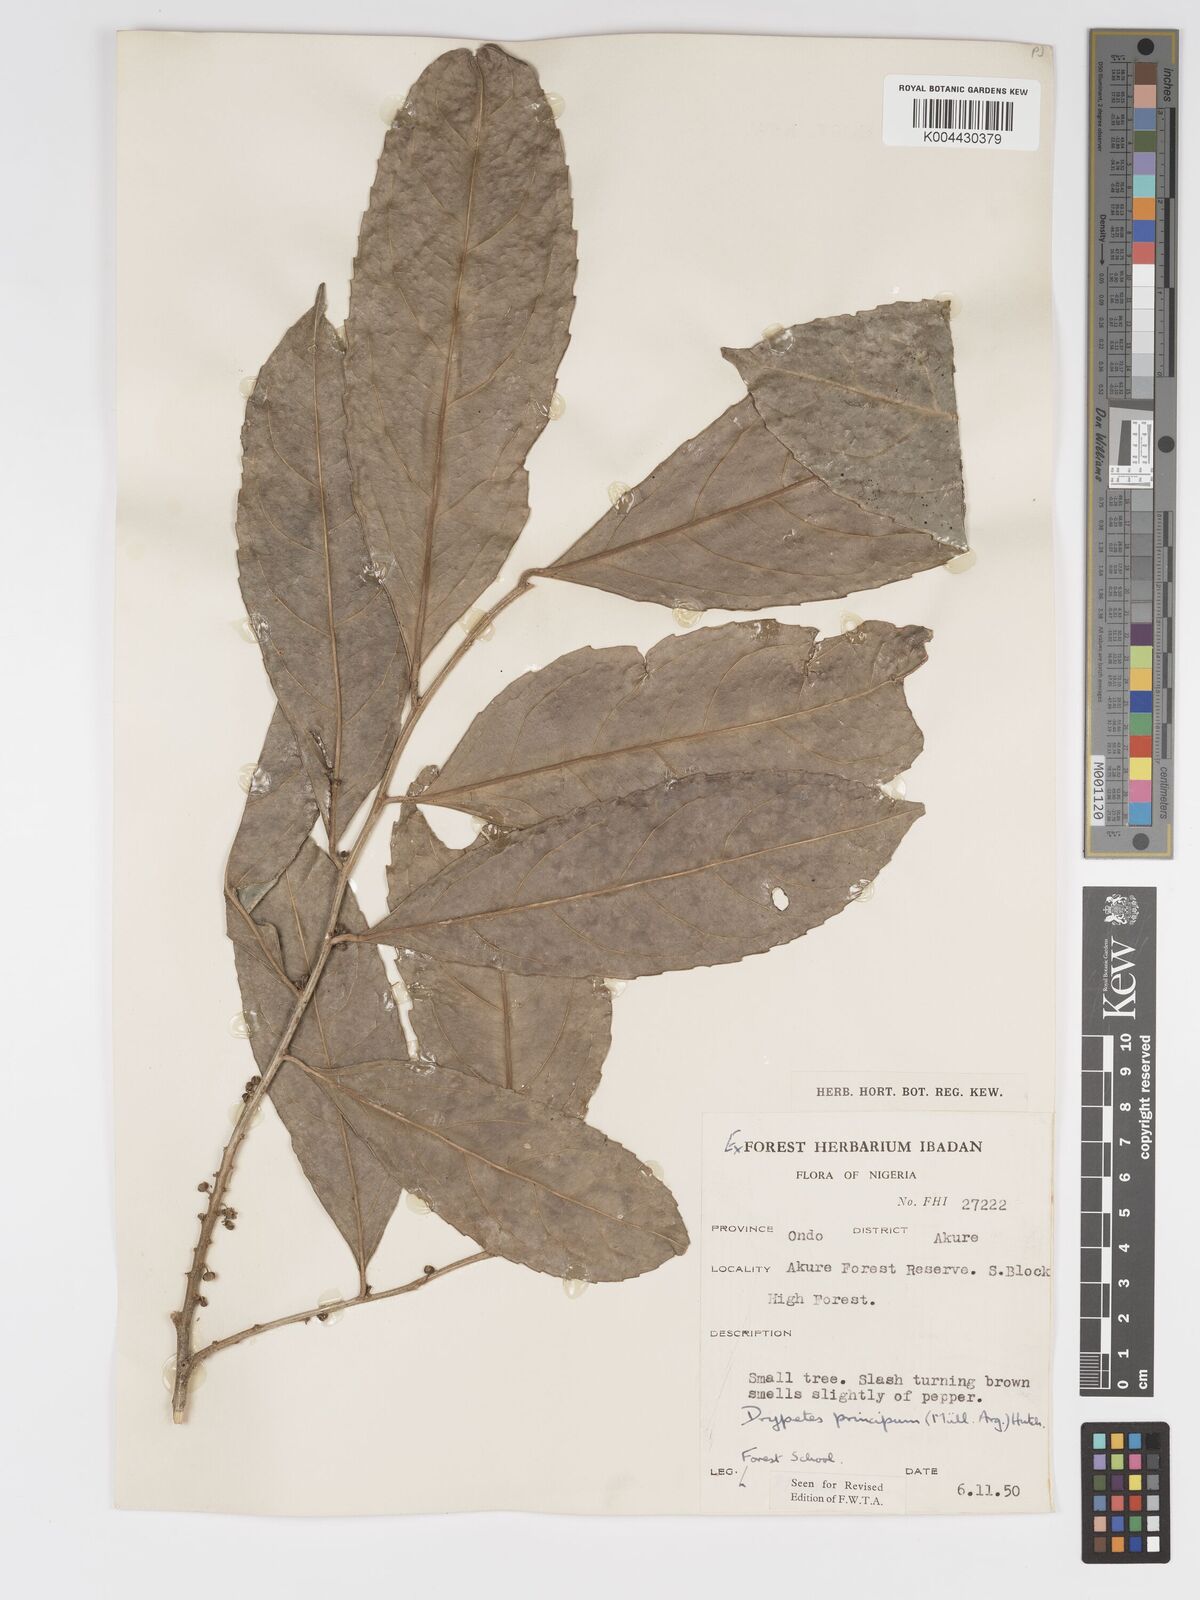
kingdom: Plantae
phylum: Tracheophyta
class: Magnoliopsida
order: Malpighiales
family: Putranjivaceae
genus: Drypetes
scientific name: Drypetes principum
